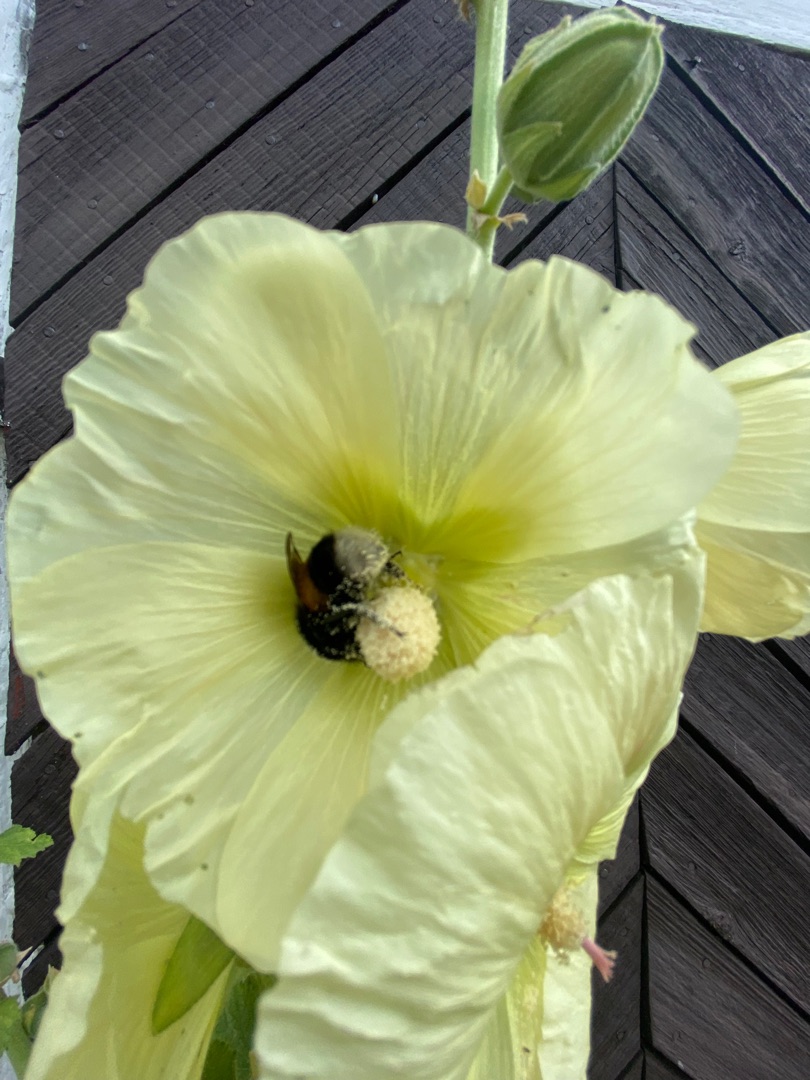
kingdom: Plantae
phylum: Tracheophyta
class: Magnoliopsida
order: Malvales
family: Malvaceae
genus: Alcea
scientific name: Alcea rosea
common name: Have-stokrose
